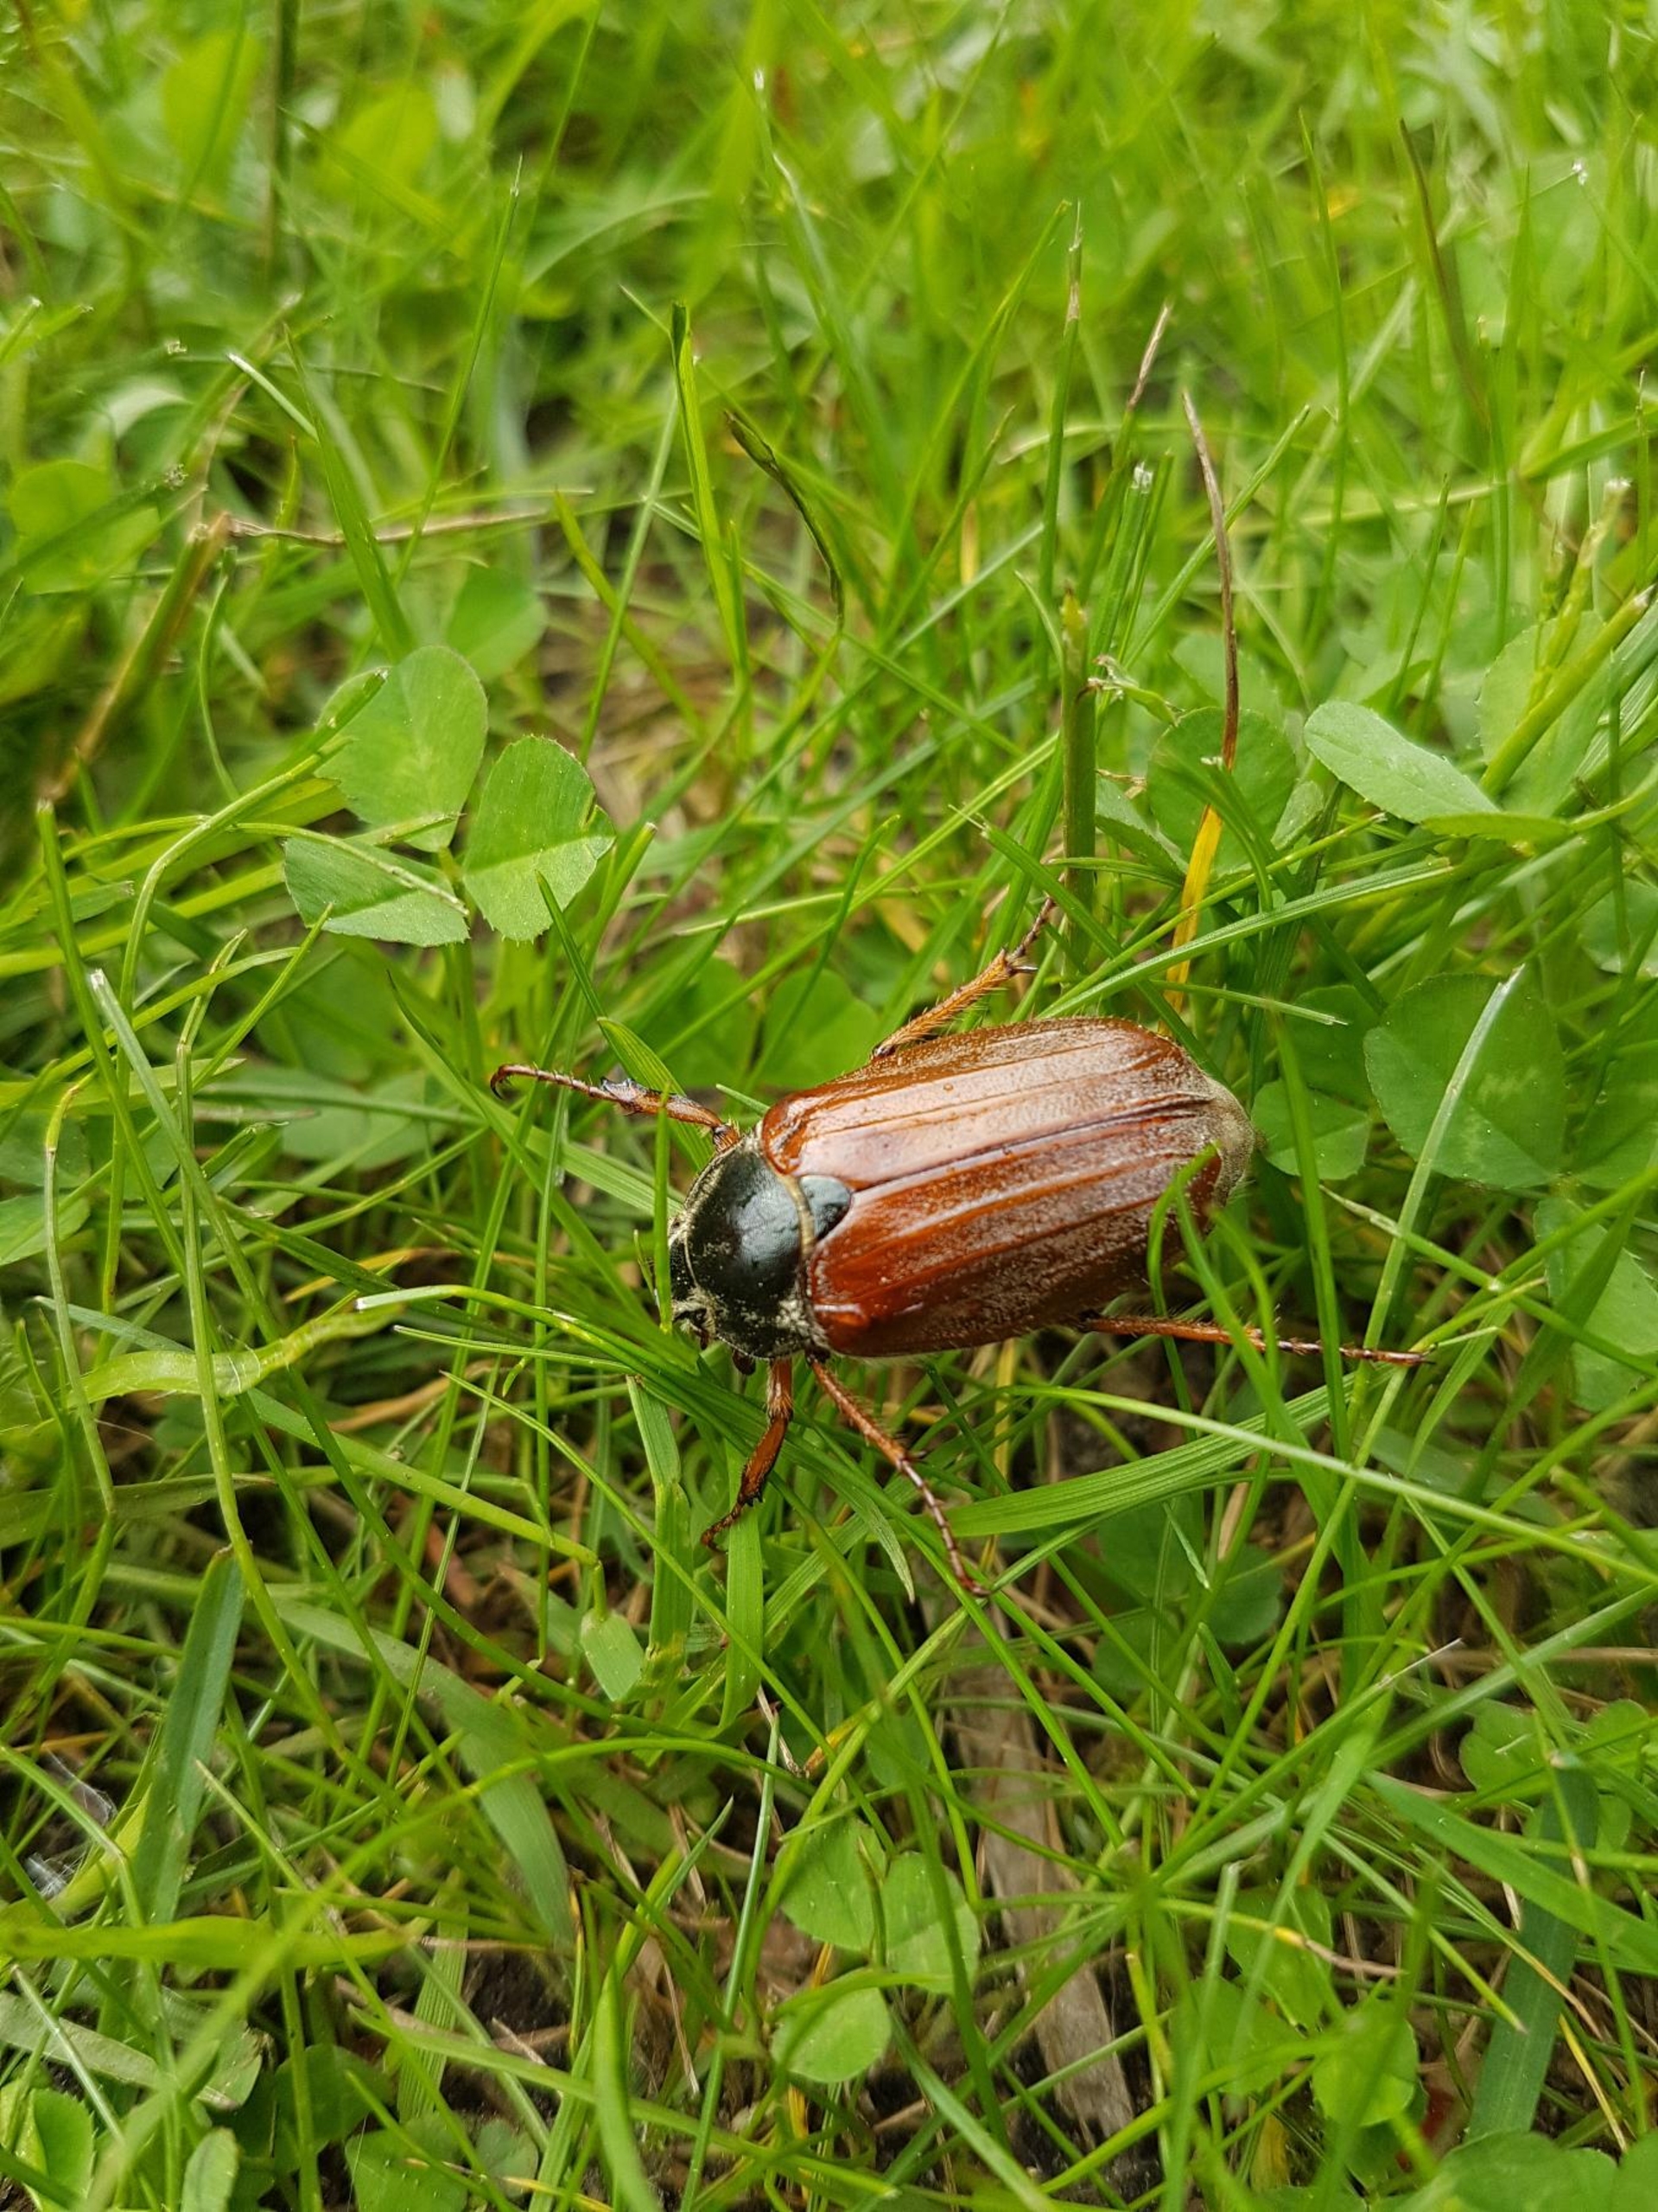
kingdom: Animalia
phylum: Arthropoda
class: Insecta
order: Coleoptera
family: Scarabaeidae
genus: Melolontha
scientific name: Melolontha melolontha
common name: Almindelig oldenborre
